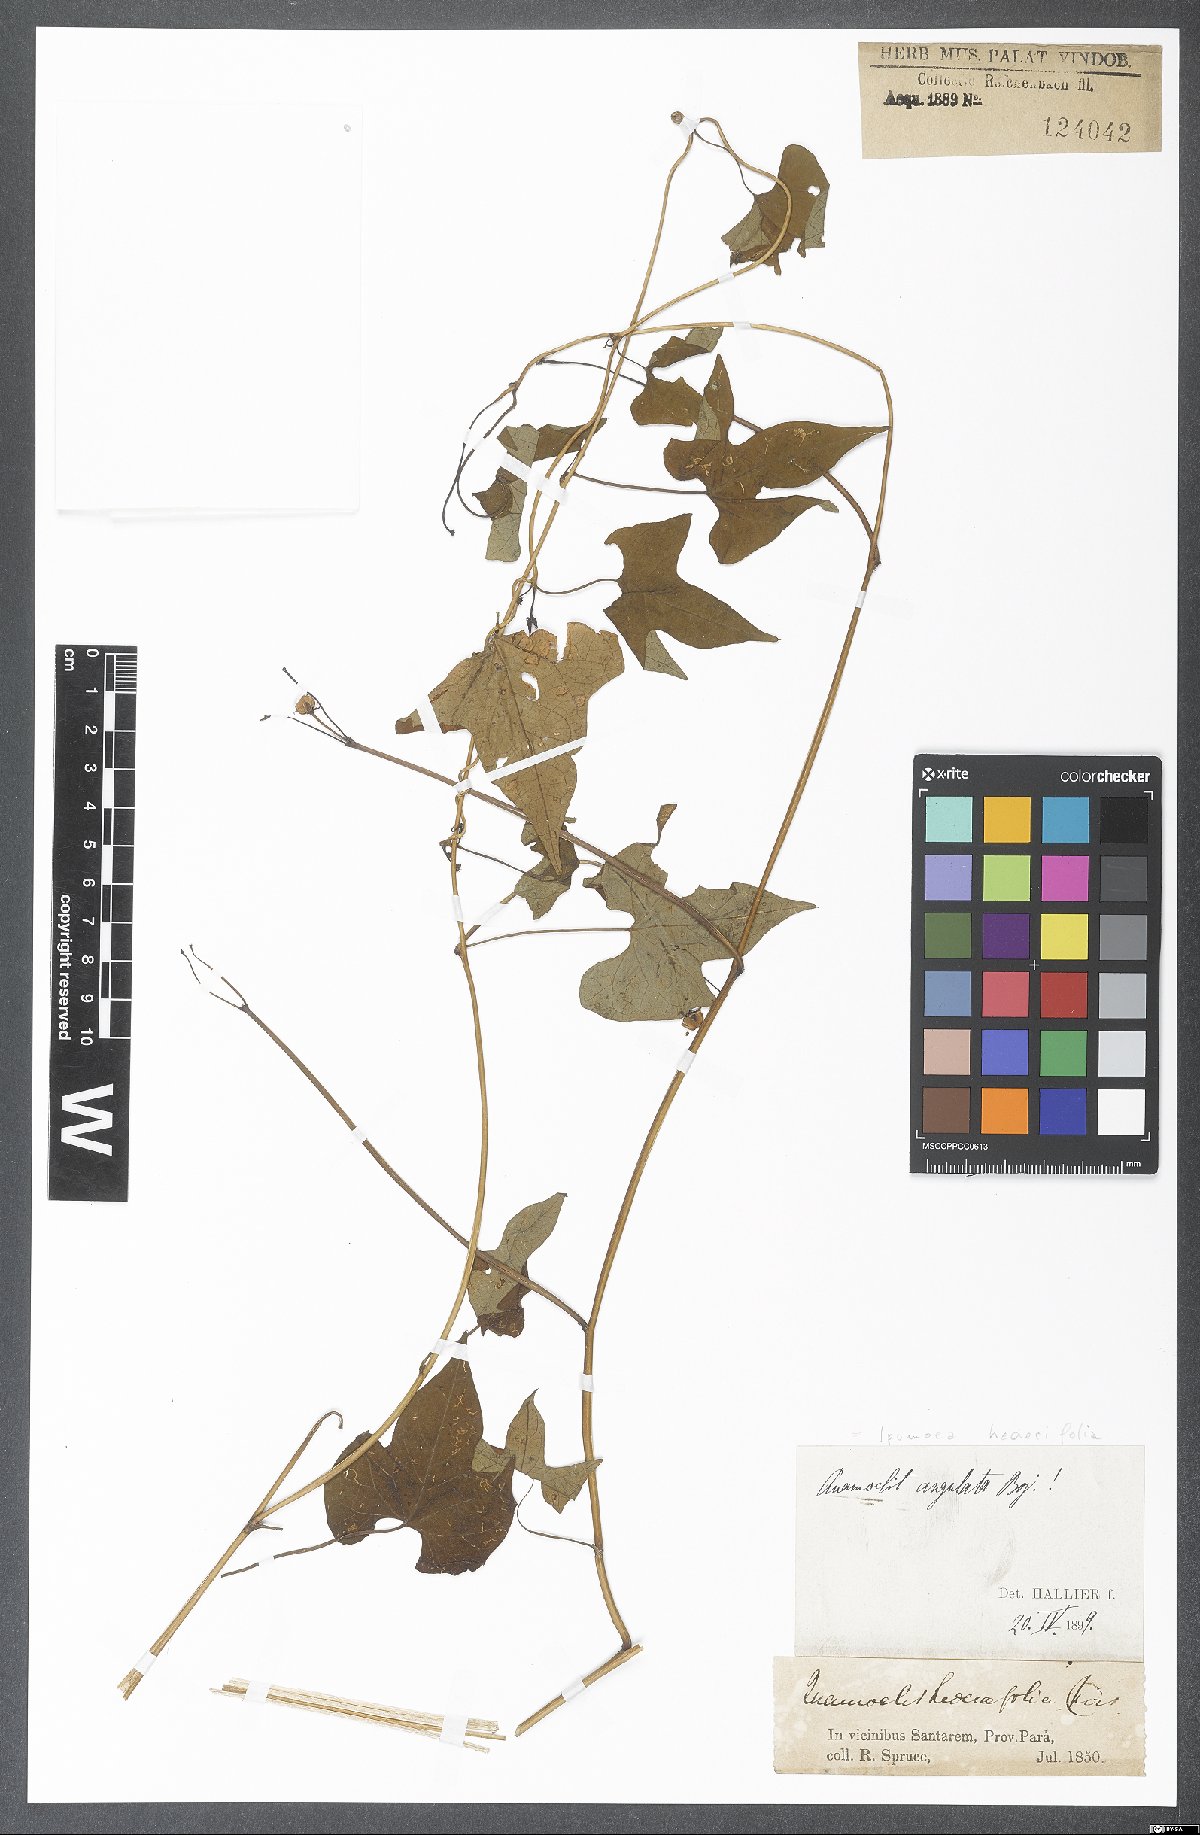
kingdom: Plantae
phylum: Tracheophyta
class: Magnoliopsida
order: Solanales
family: Convolvulaceae
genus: Ipomoea
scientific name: Ipomoea hederifolia
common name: Ivy-leaf morning-glory
